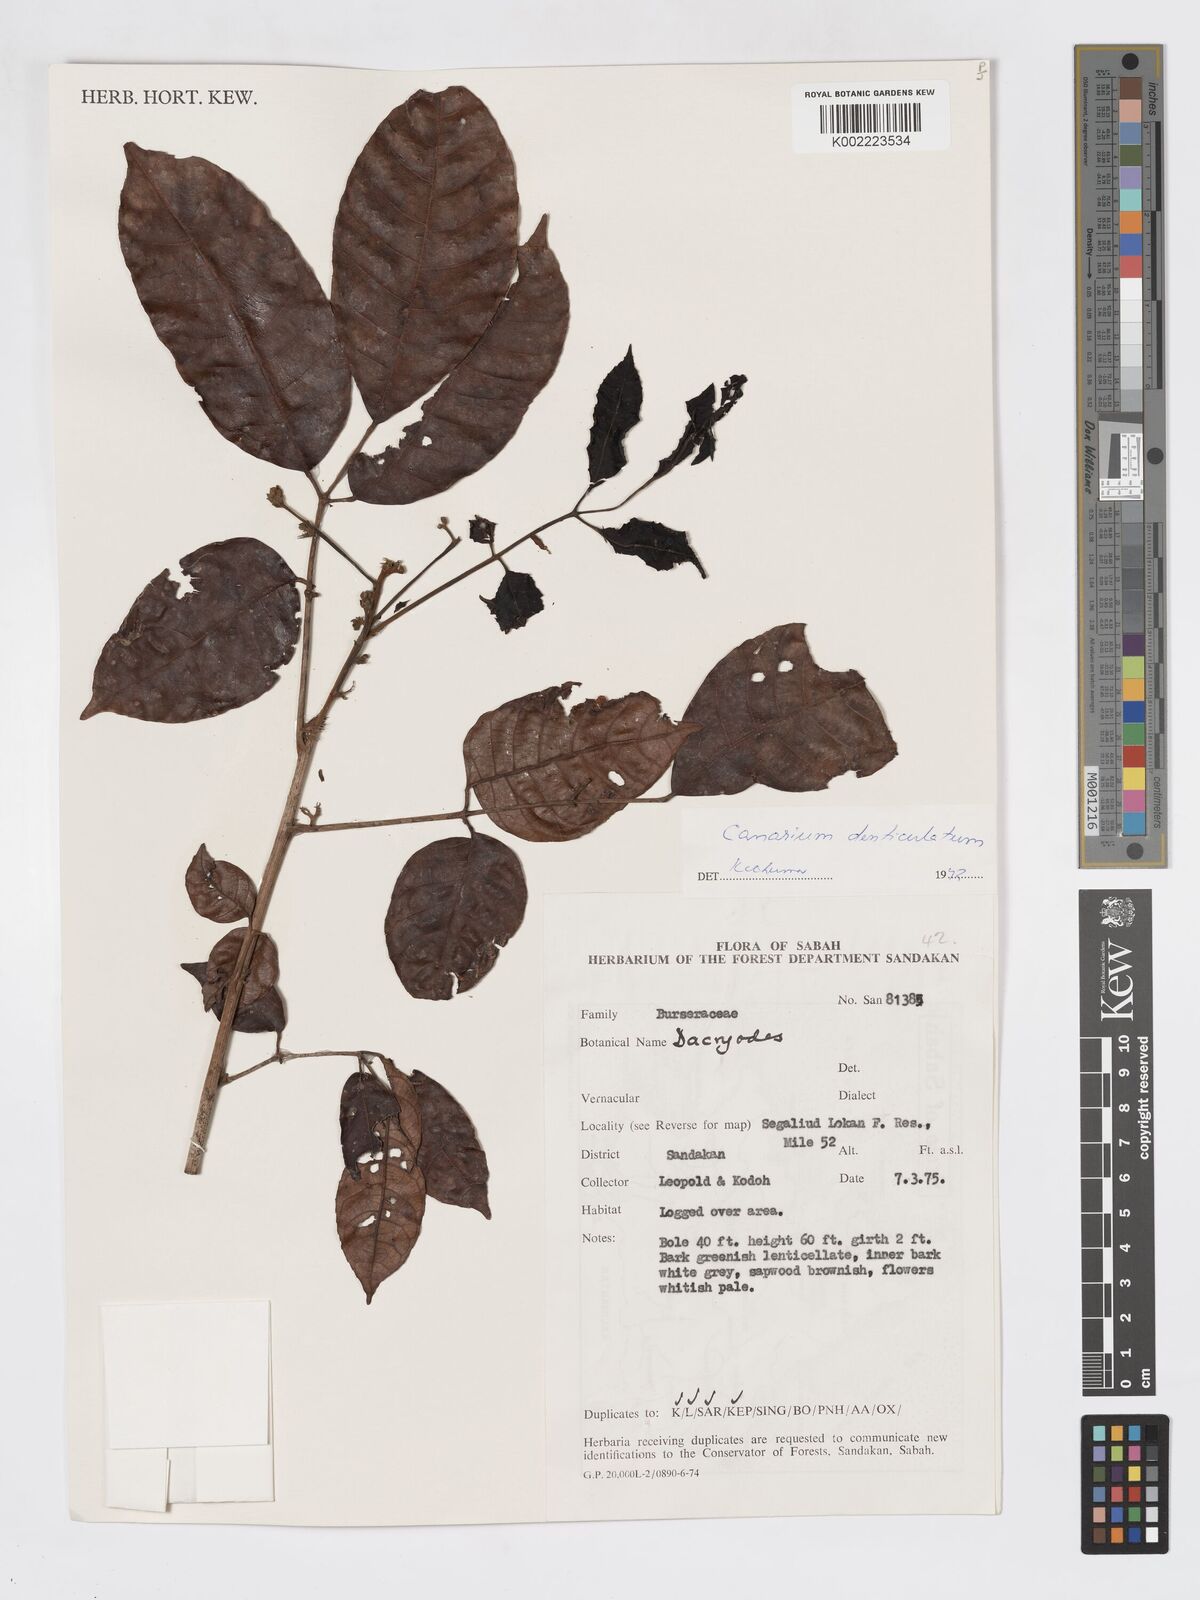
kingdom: Plantae
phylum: Tracheophyta
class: Magnoliopsida
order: Sapindales
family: Burseraceae
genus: Canarium
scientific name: Canarium denticulatum
